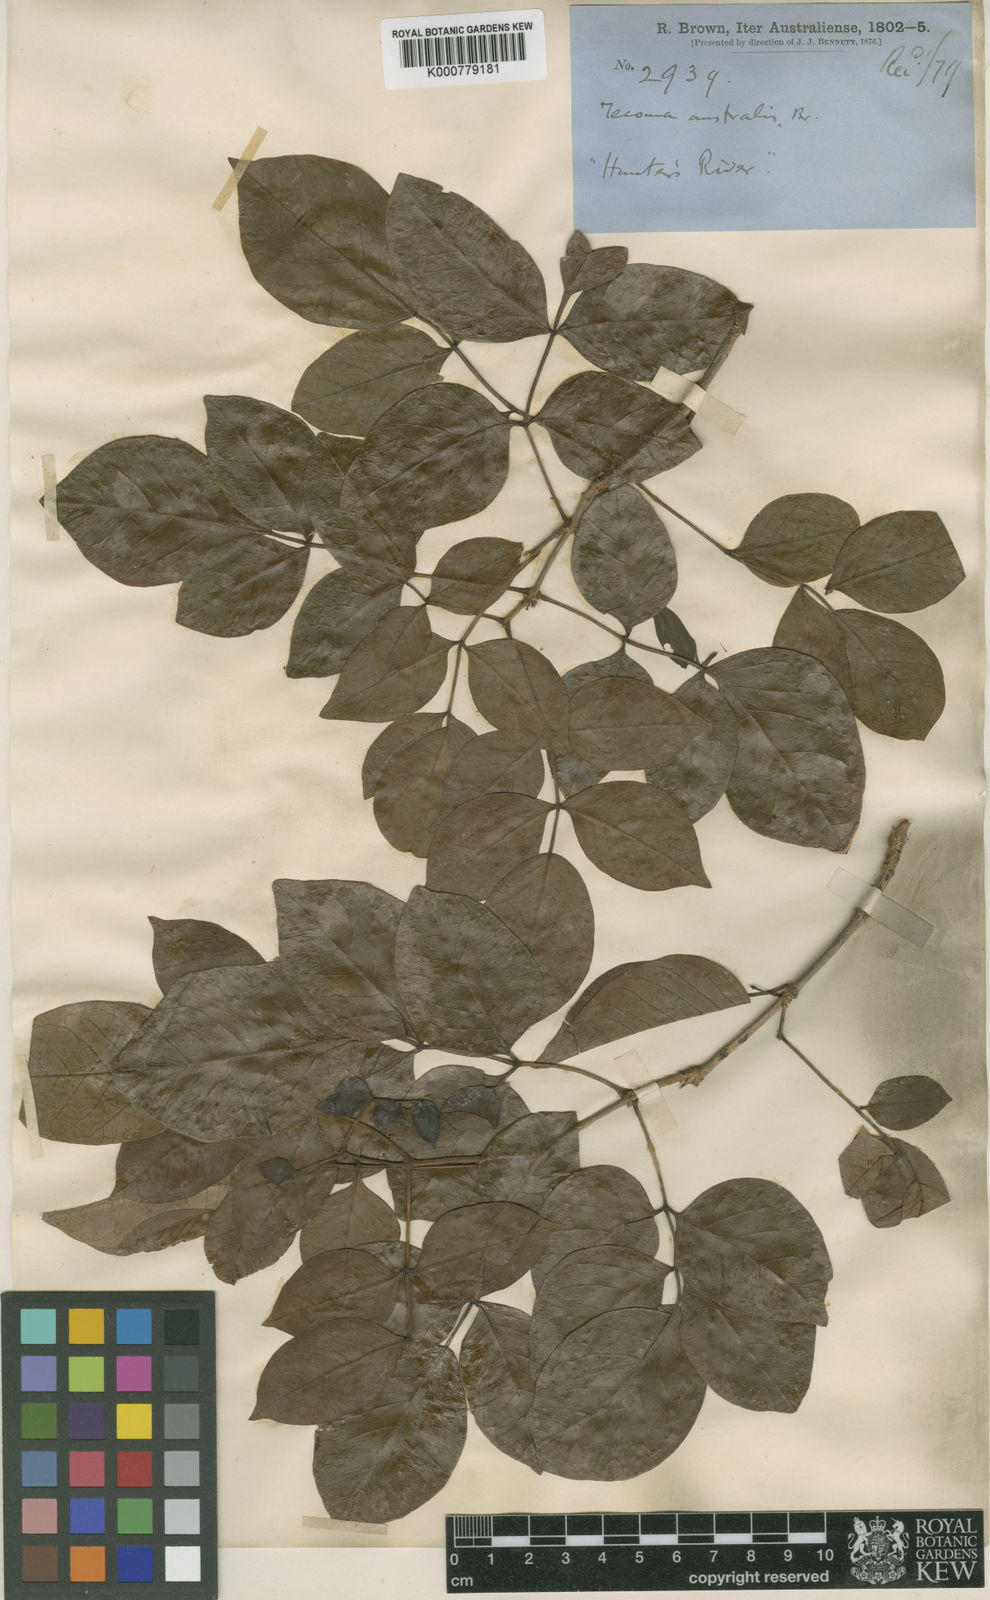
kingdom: Plantae
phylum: Tracheophyta
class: Magnoliopsida
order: Lamiales
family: Bignoniaceae
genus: Pandorea
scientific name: Pandorea pandorana
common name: Wonga-wonga-vine
